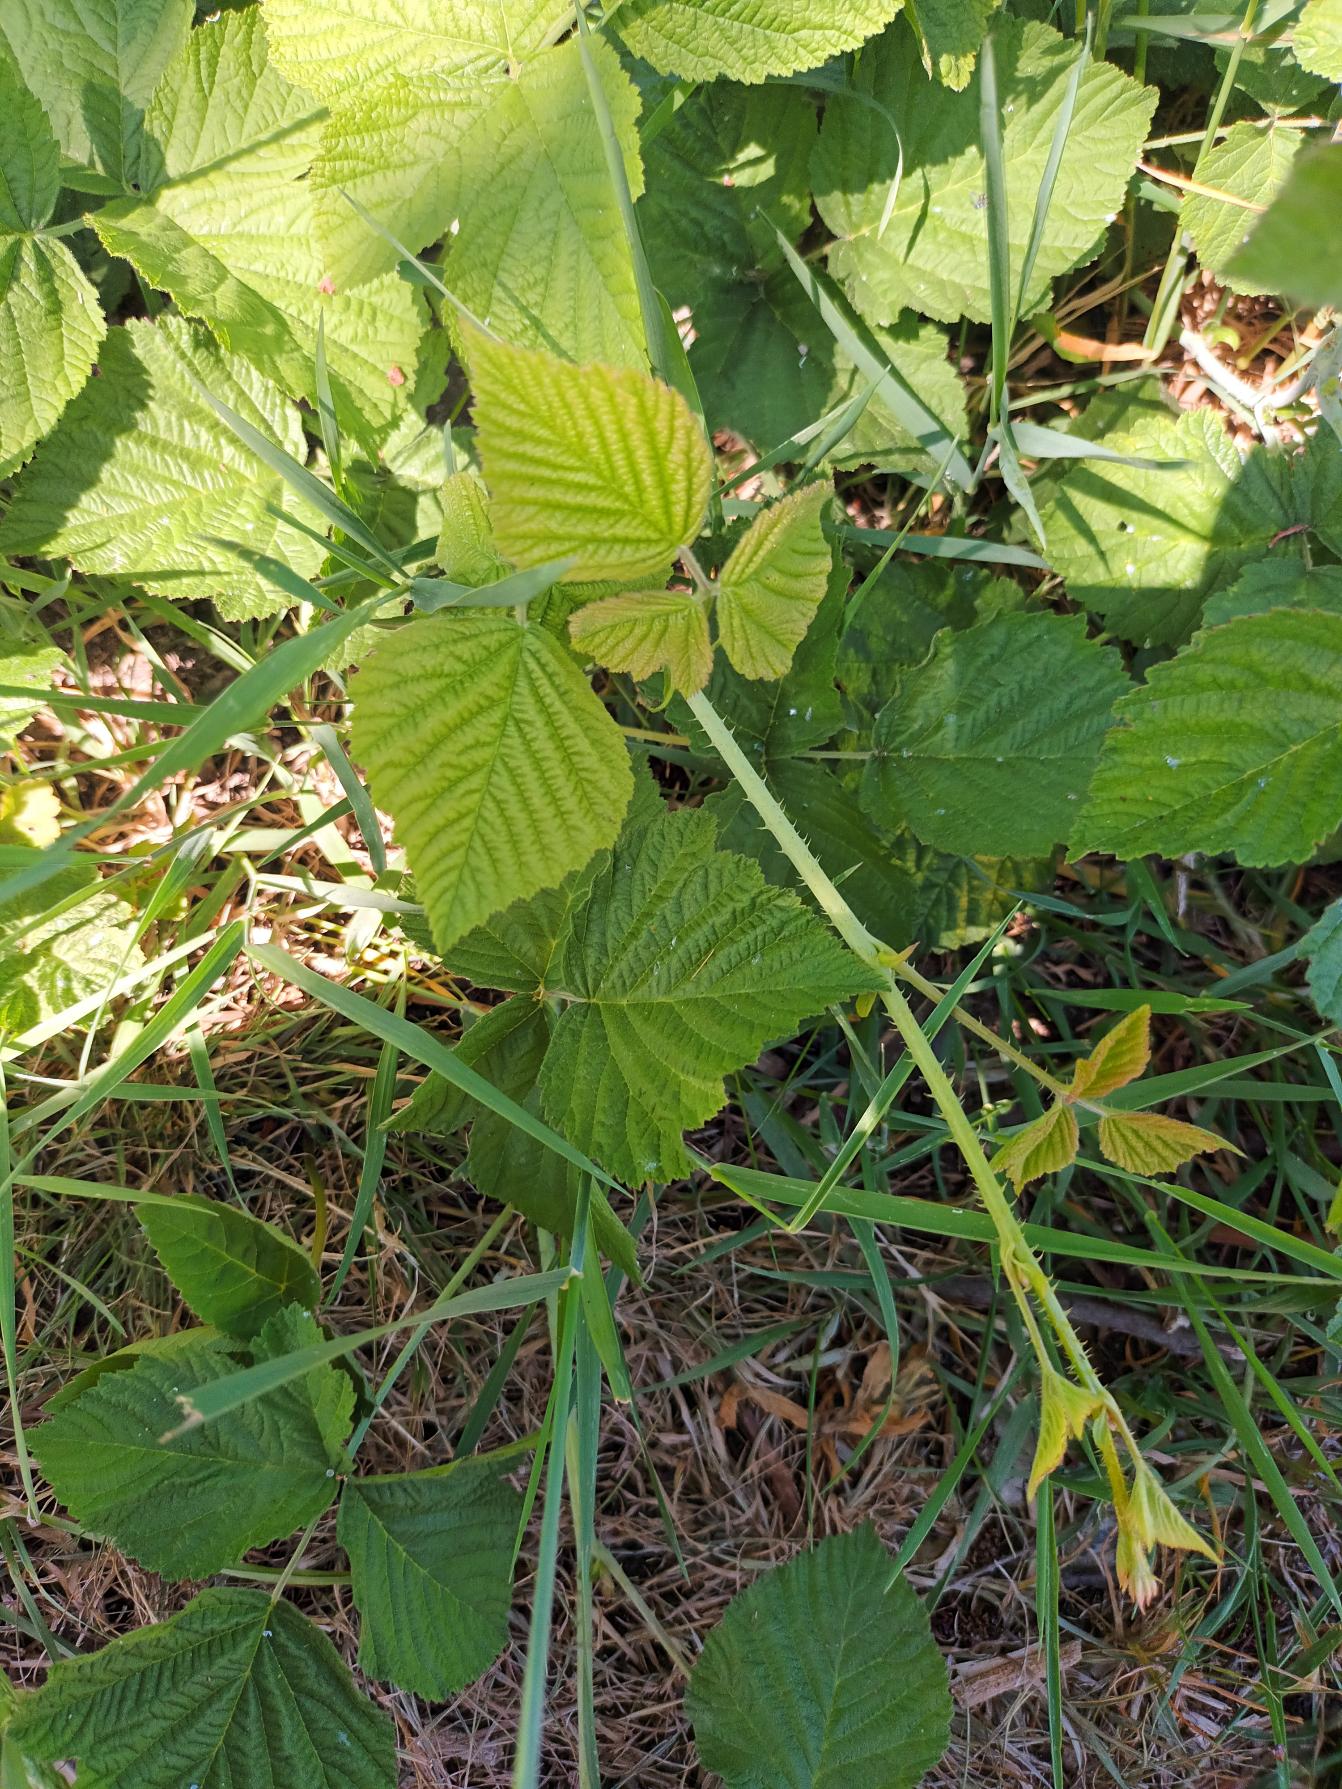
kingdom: Plantae
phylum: Tracheophyta
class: Magnoliopsida
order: Rosales
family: Rosaceae
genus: Rubus
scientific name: Rubus caesius
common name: Korbær
